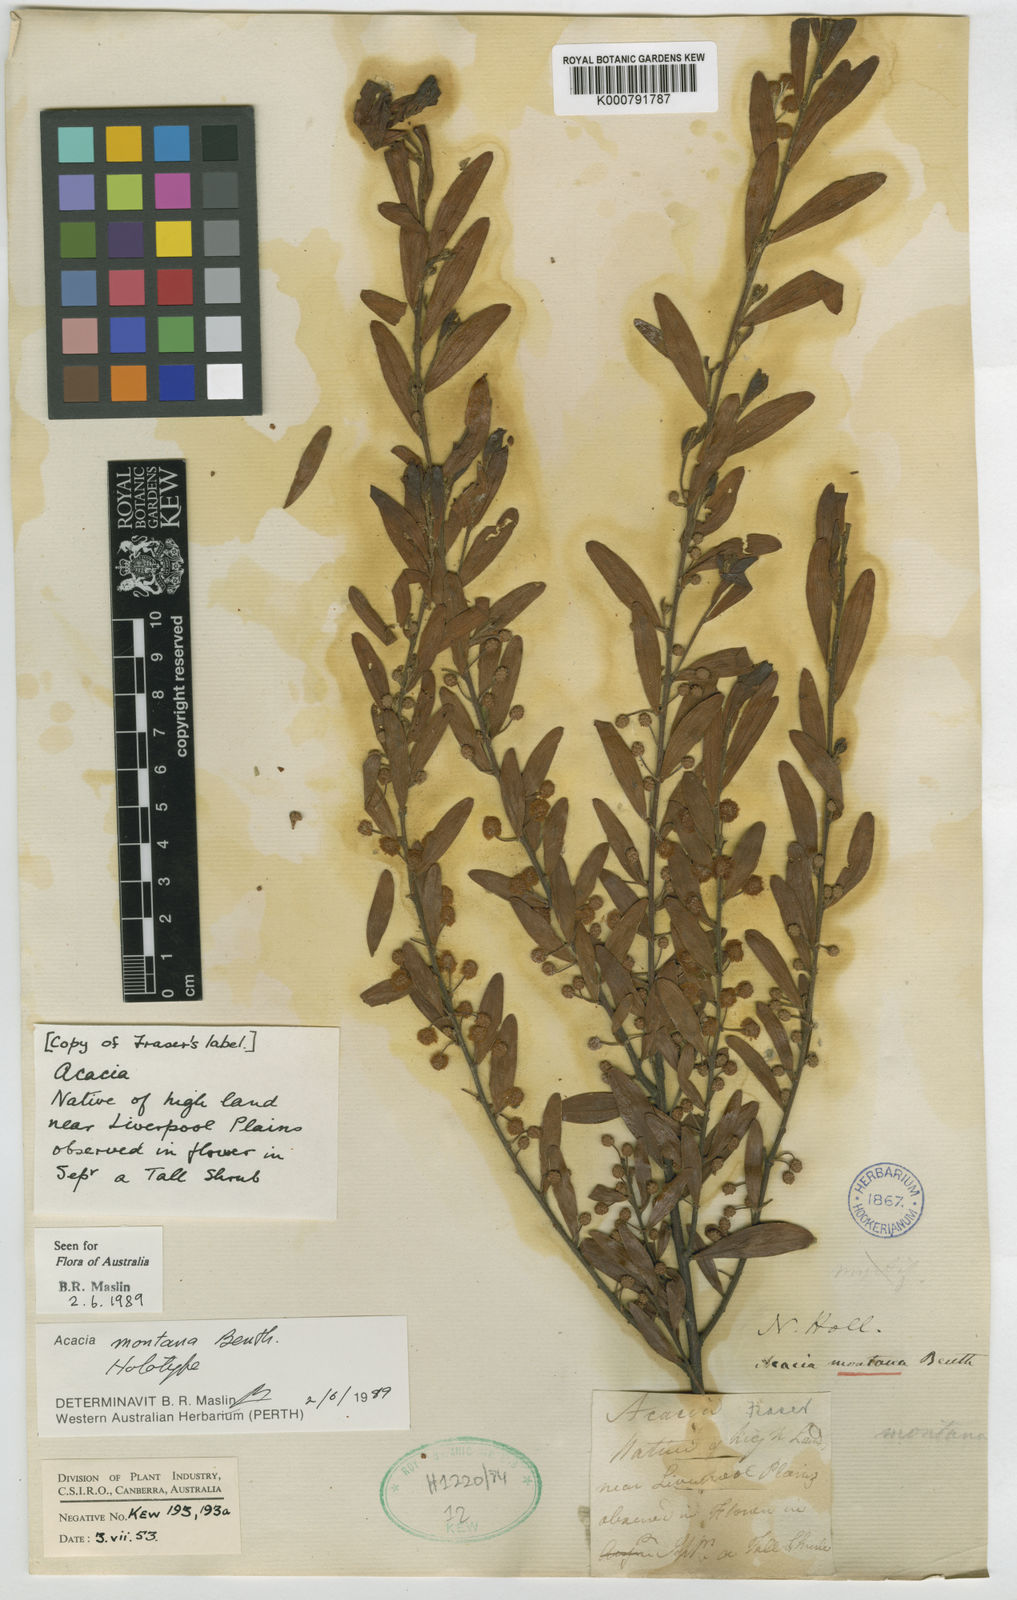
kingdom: Plantae
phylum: Tracheophyta
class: Magnoliopsida
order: Fabales
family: Fabaceae
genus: Acacia
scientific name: Acacia montana
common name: Mallee wattle
